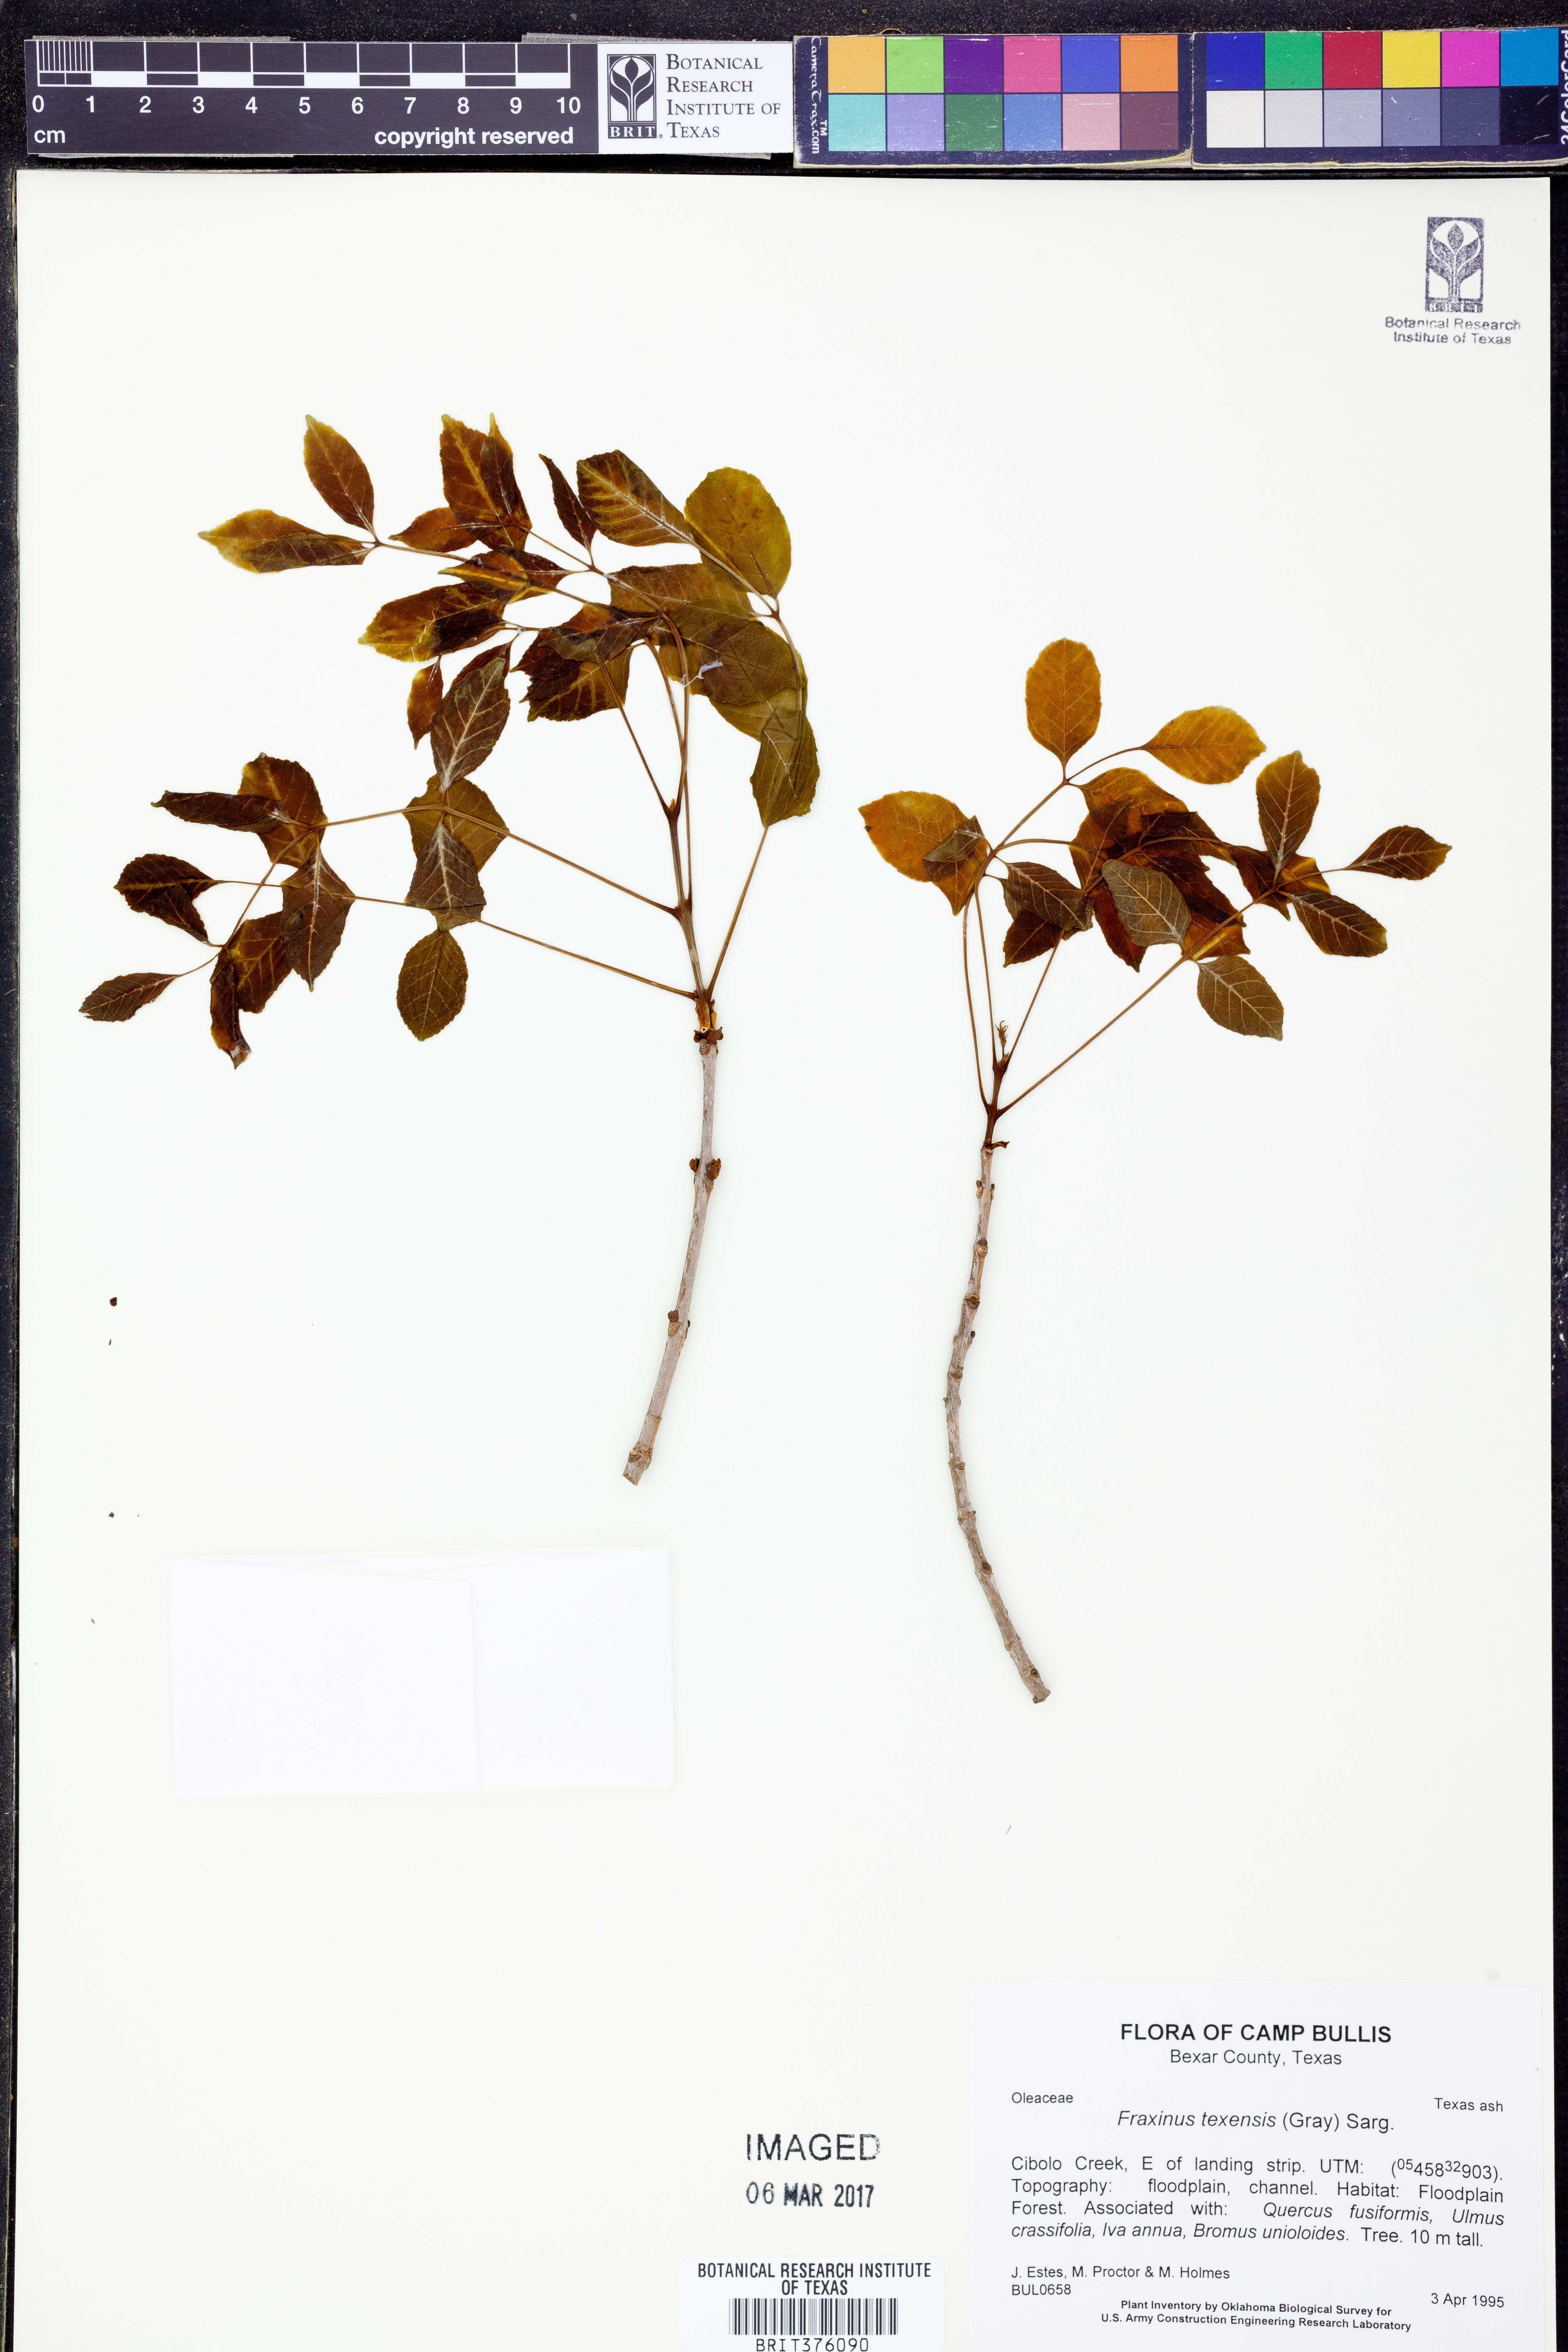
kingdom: Plantae
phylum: Tracheophyta
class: Magnoliopsida
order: Lamiales
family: Oleaceae
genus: Fraxinus
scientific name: Fraxinus albicans
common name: Texas ash
